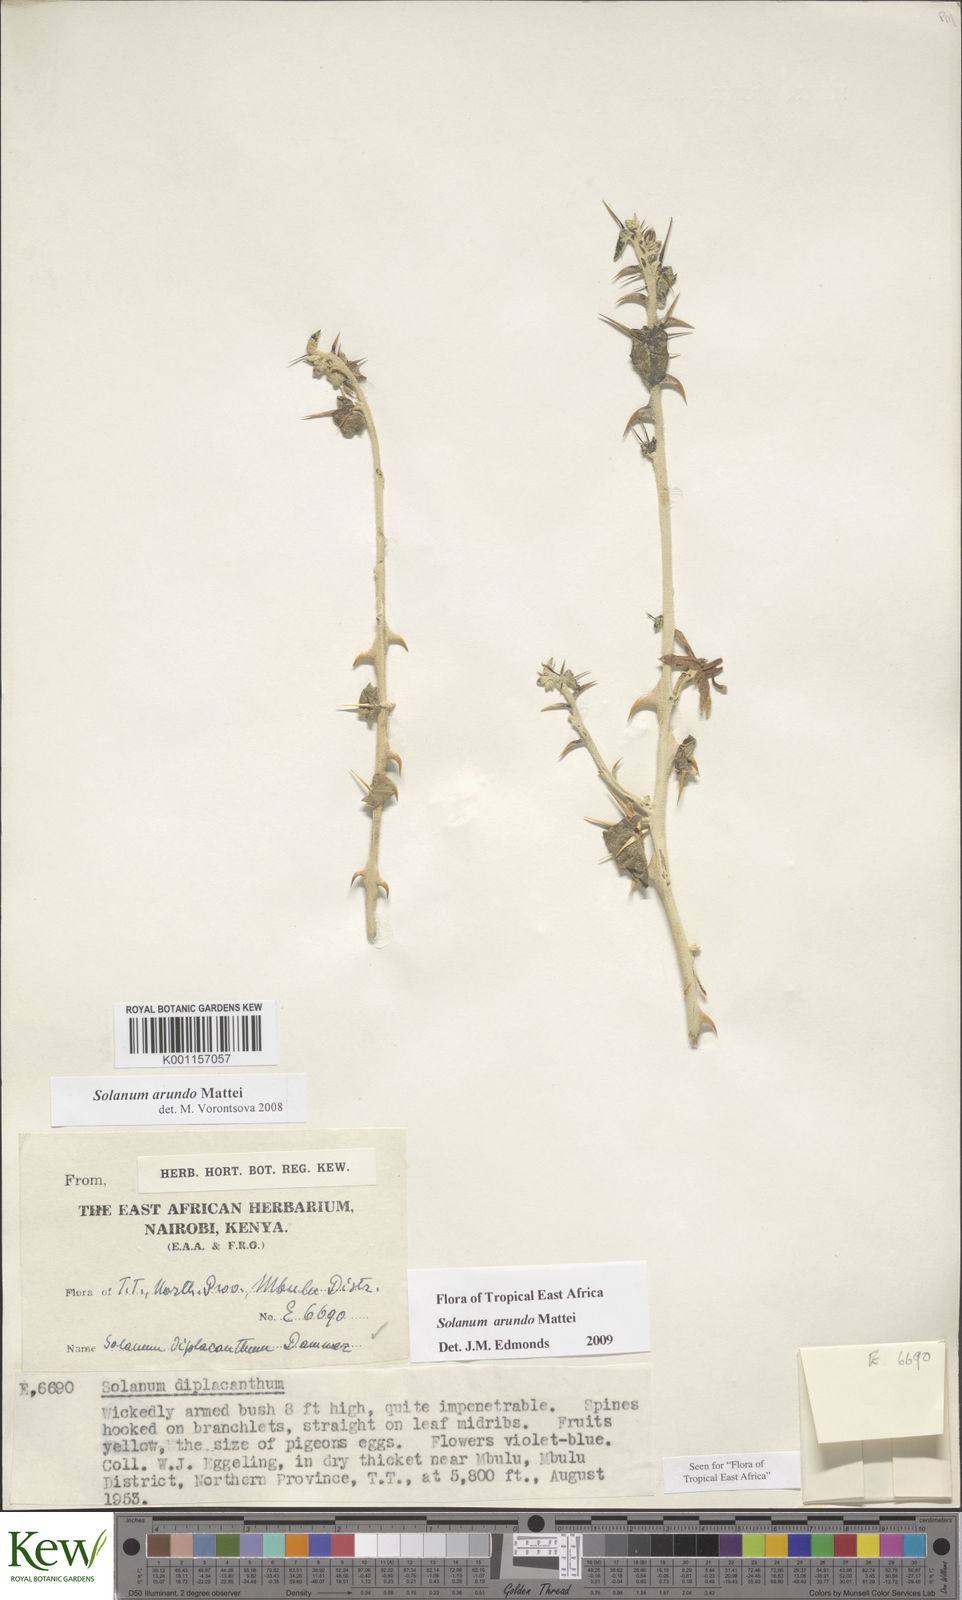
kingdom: Plantae
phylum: Tracheophyta
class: Magnoliopsida
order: Solanales
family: Solanaceae
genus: Solanum
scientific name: Solanum arundo
